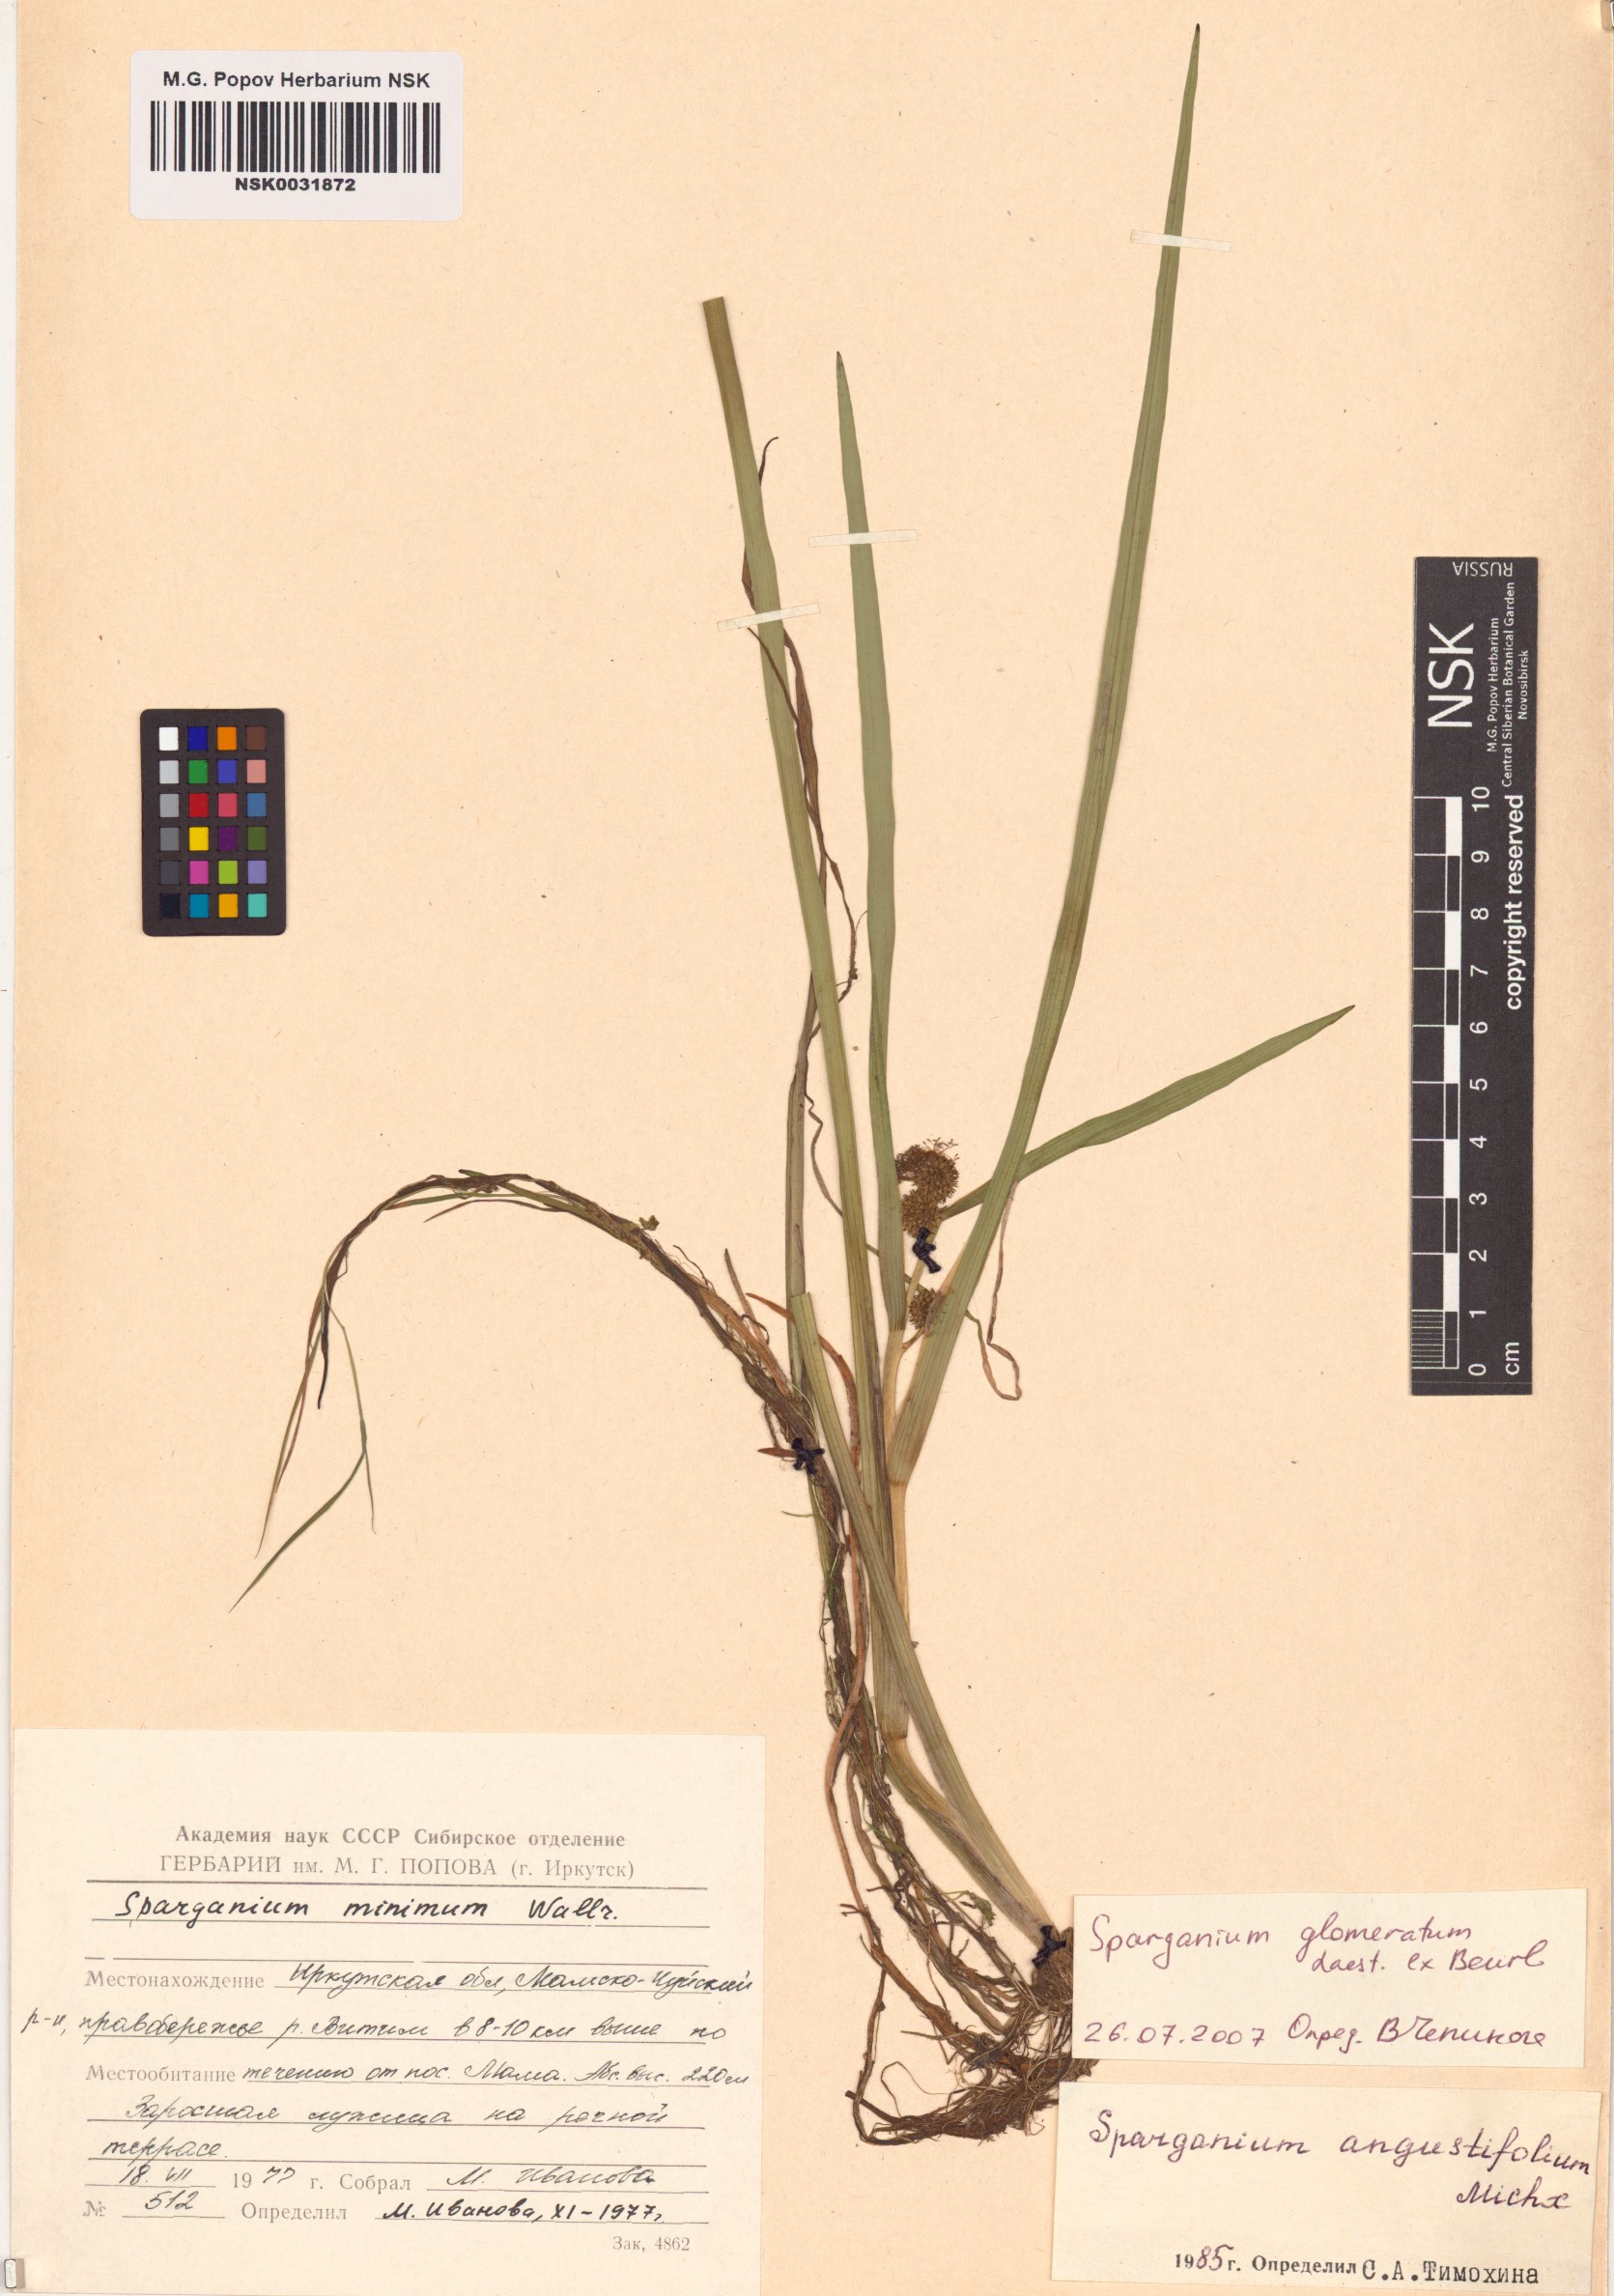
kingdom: Plantae
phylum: Tracheophyta
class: Liliopsida
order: Poales
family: Typhaceae
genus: Sparganium
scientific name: Sparganium glomeratum
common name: Clustered burreed
